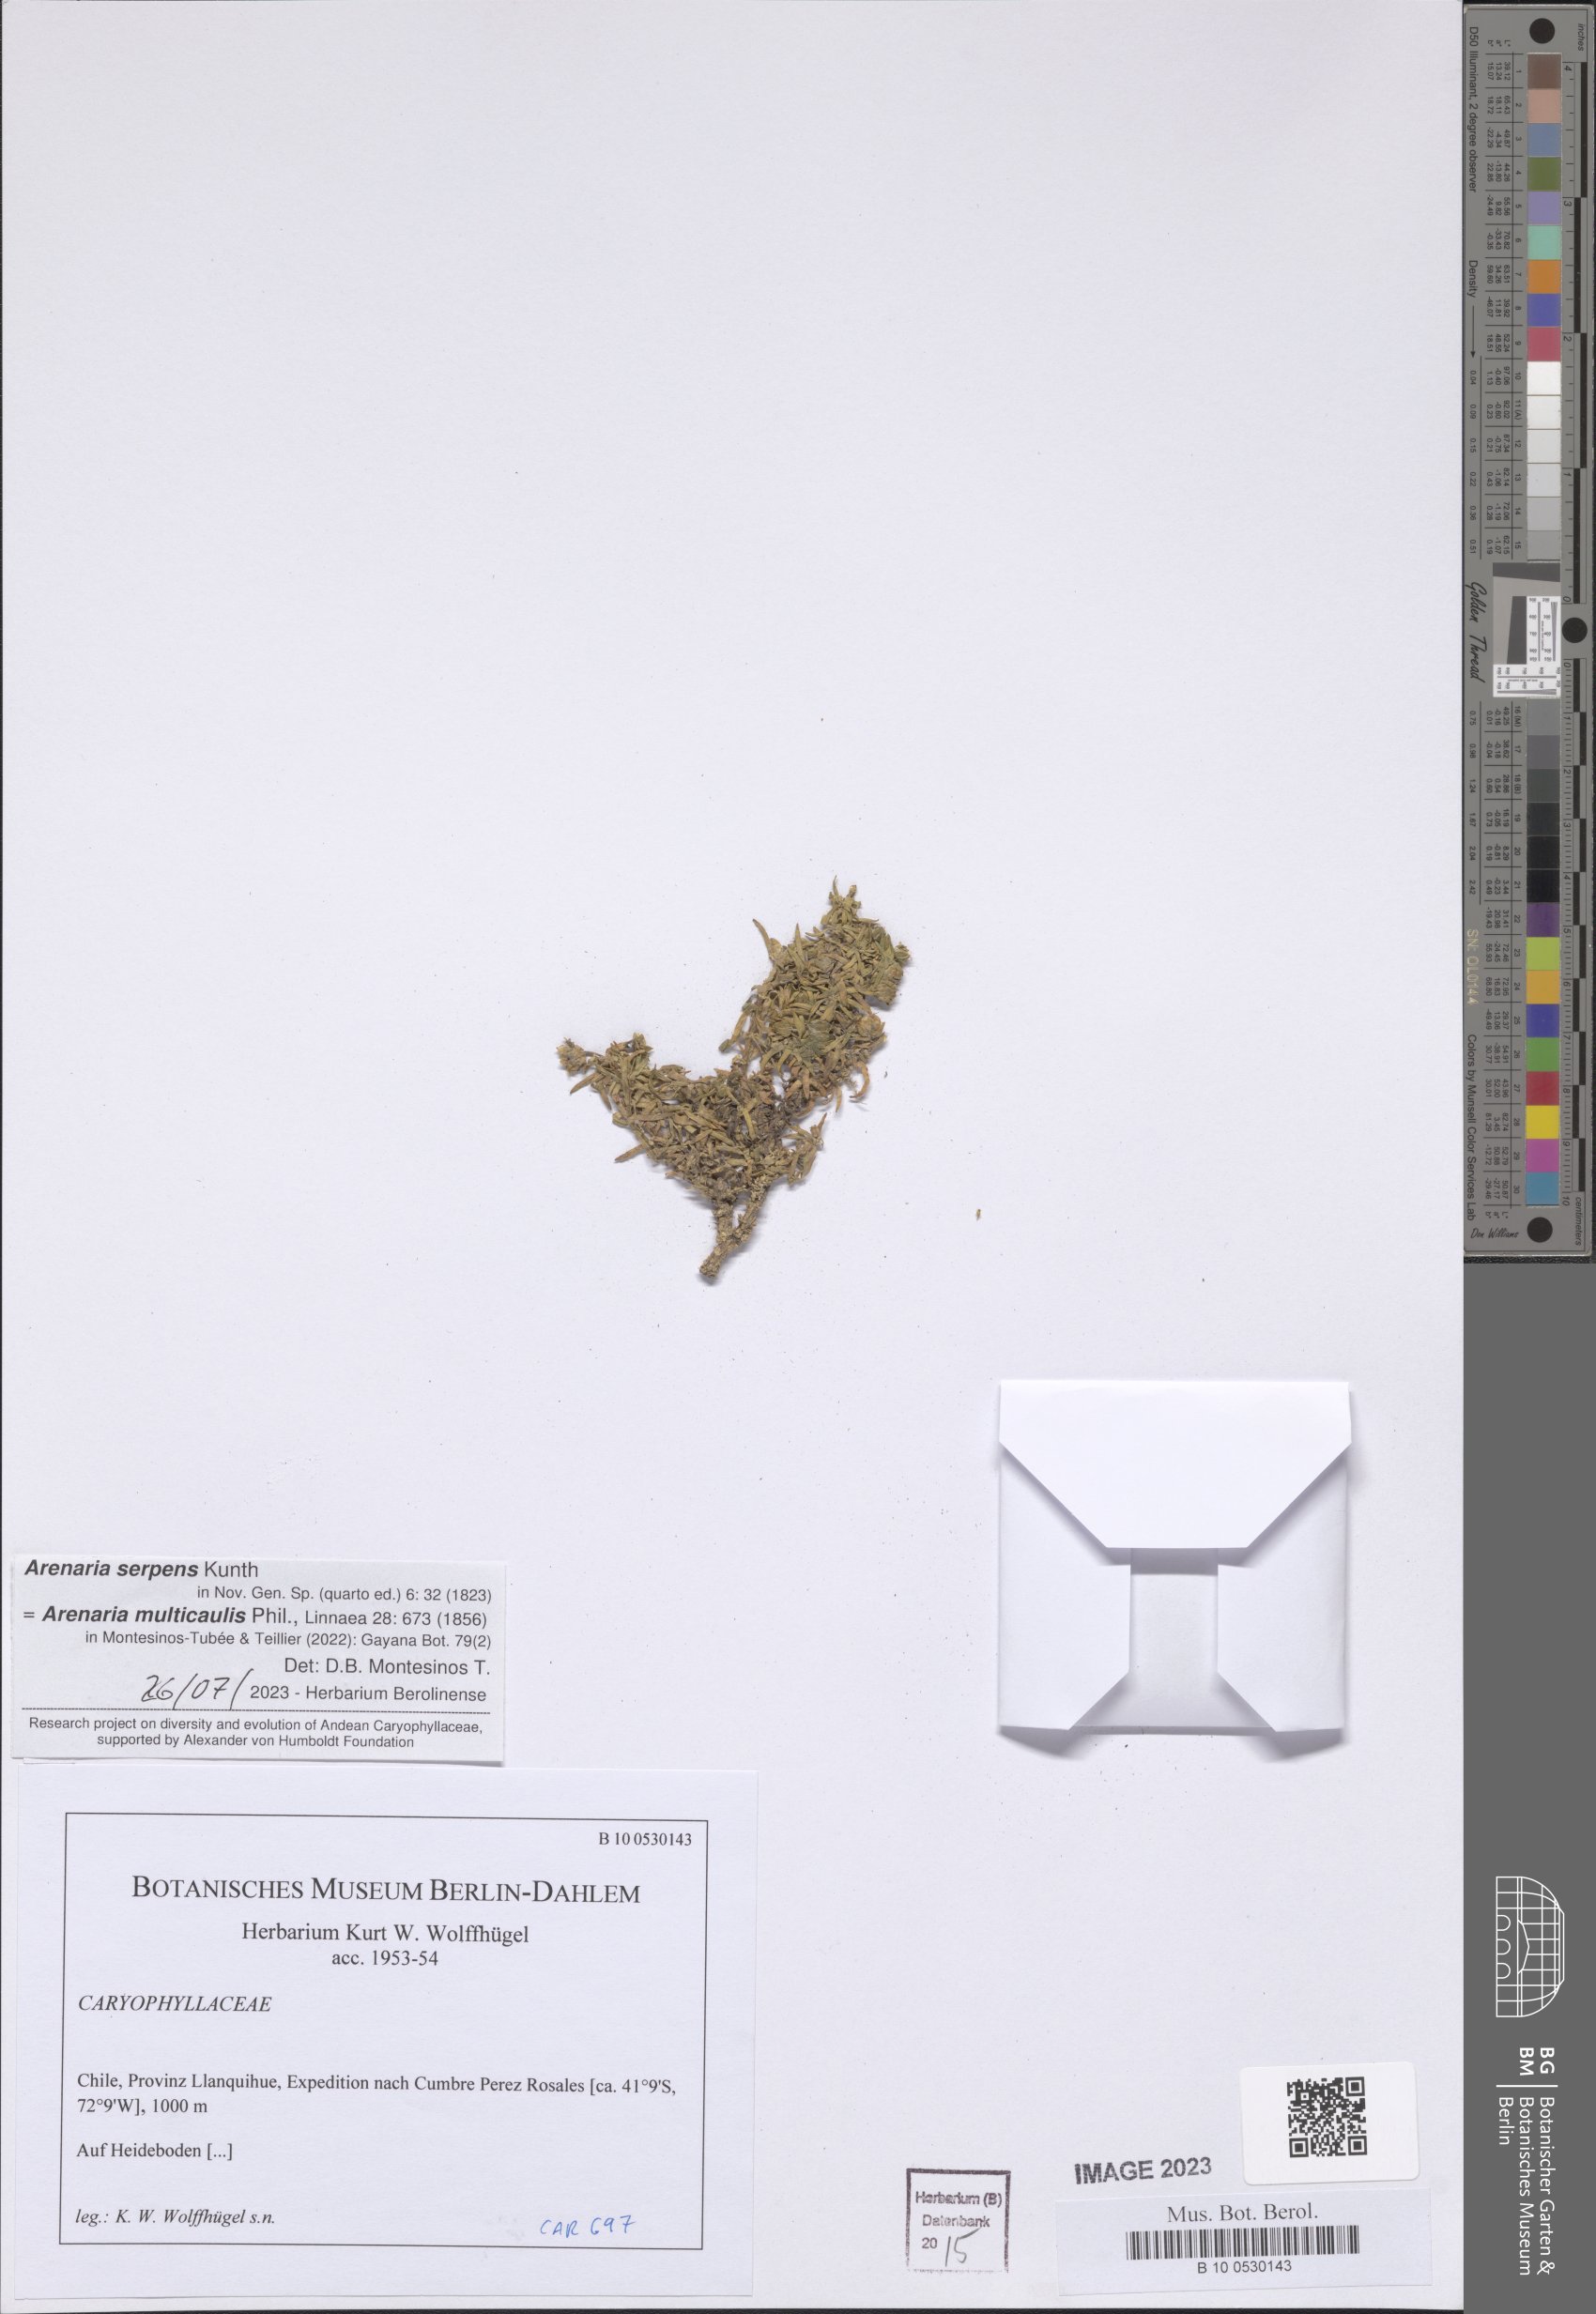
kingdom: Plantae
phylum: Tracheophyta
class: Magnoliopsida
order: Caryophyllales
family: Caryophyllaceae
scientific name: Caryophyllaceae
